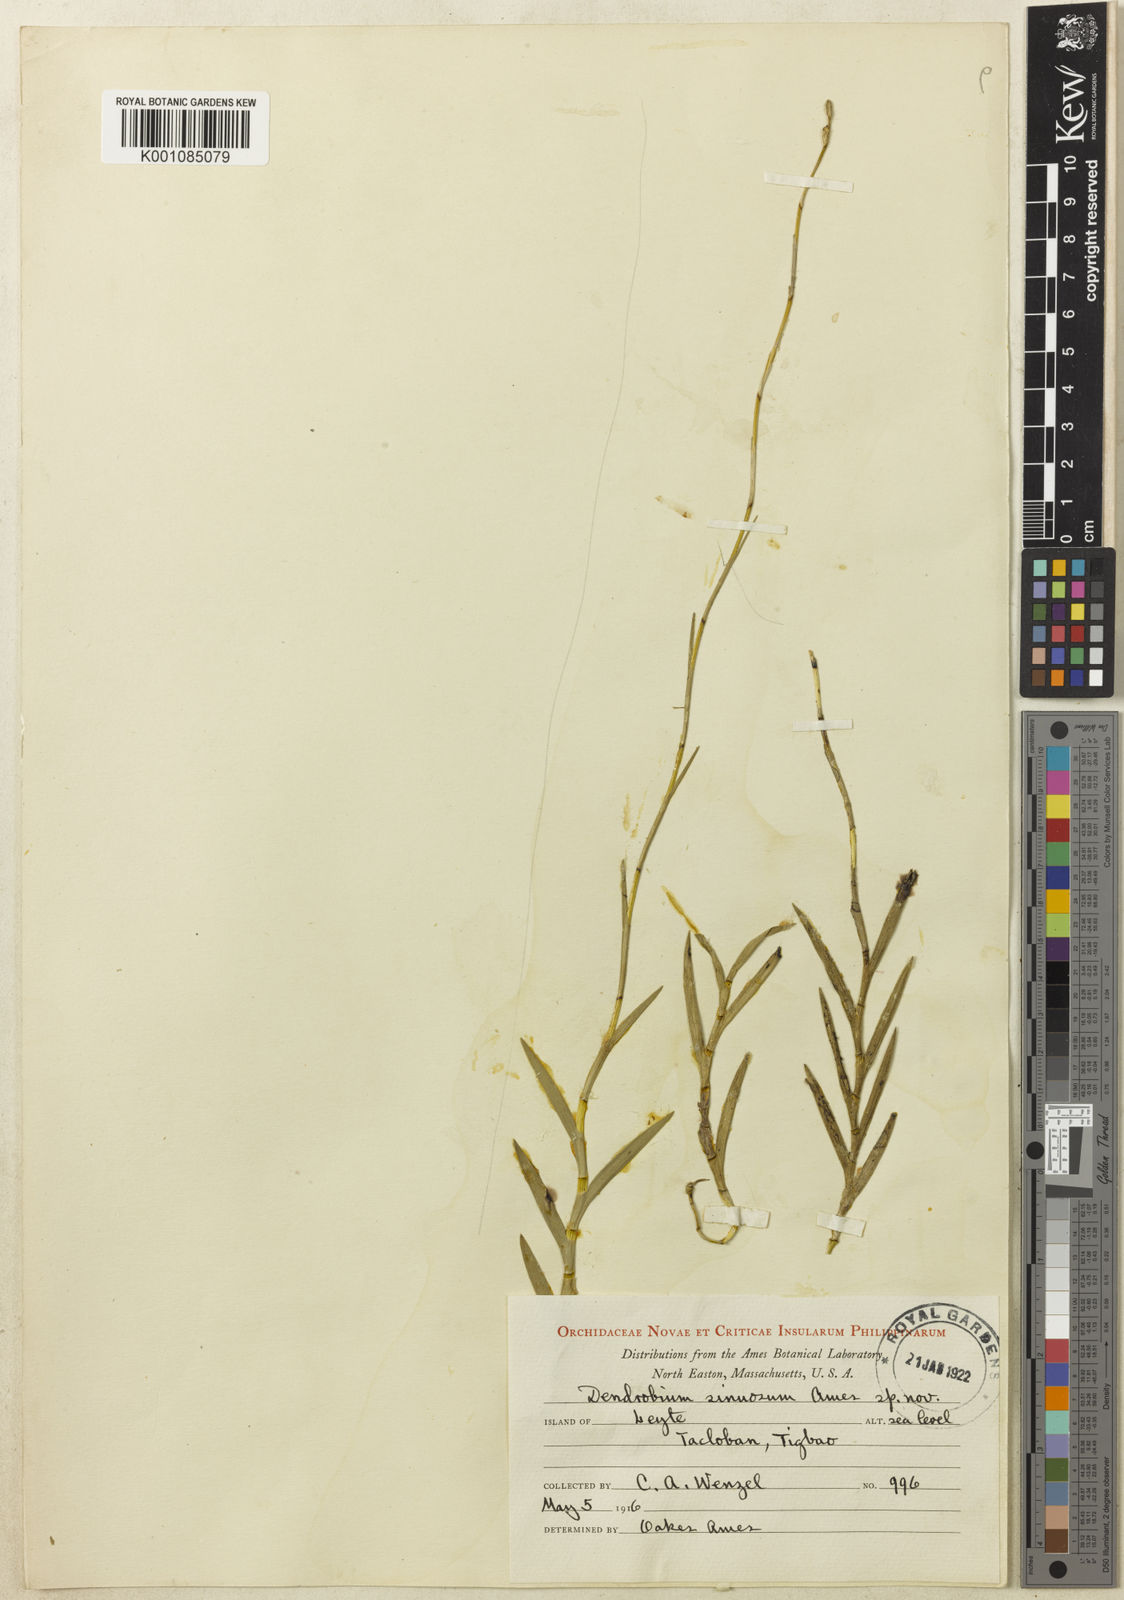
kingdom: Plantae
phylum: Tracheophyta
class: Liliopsida
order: Asparagales
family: Orchidaceae
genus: Dendrobium
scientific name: Dendrobium sinuosum
